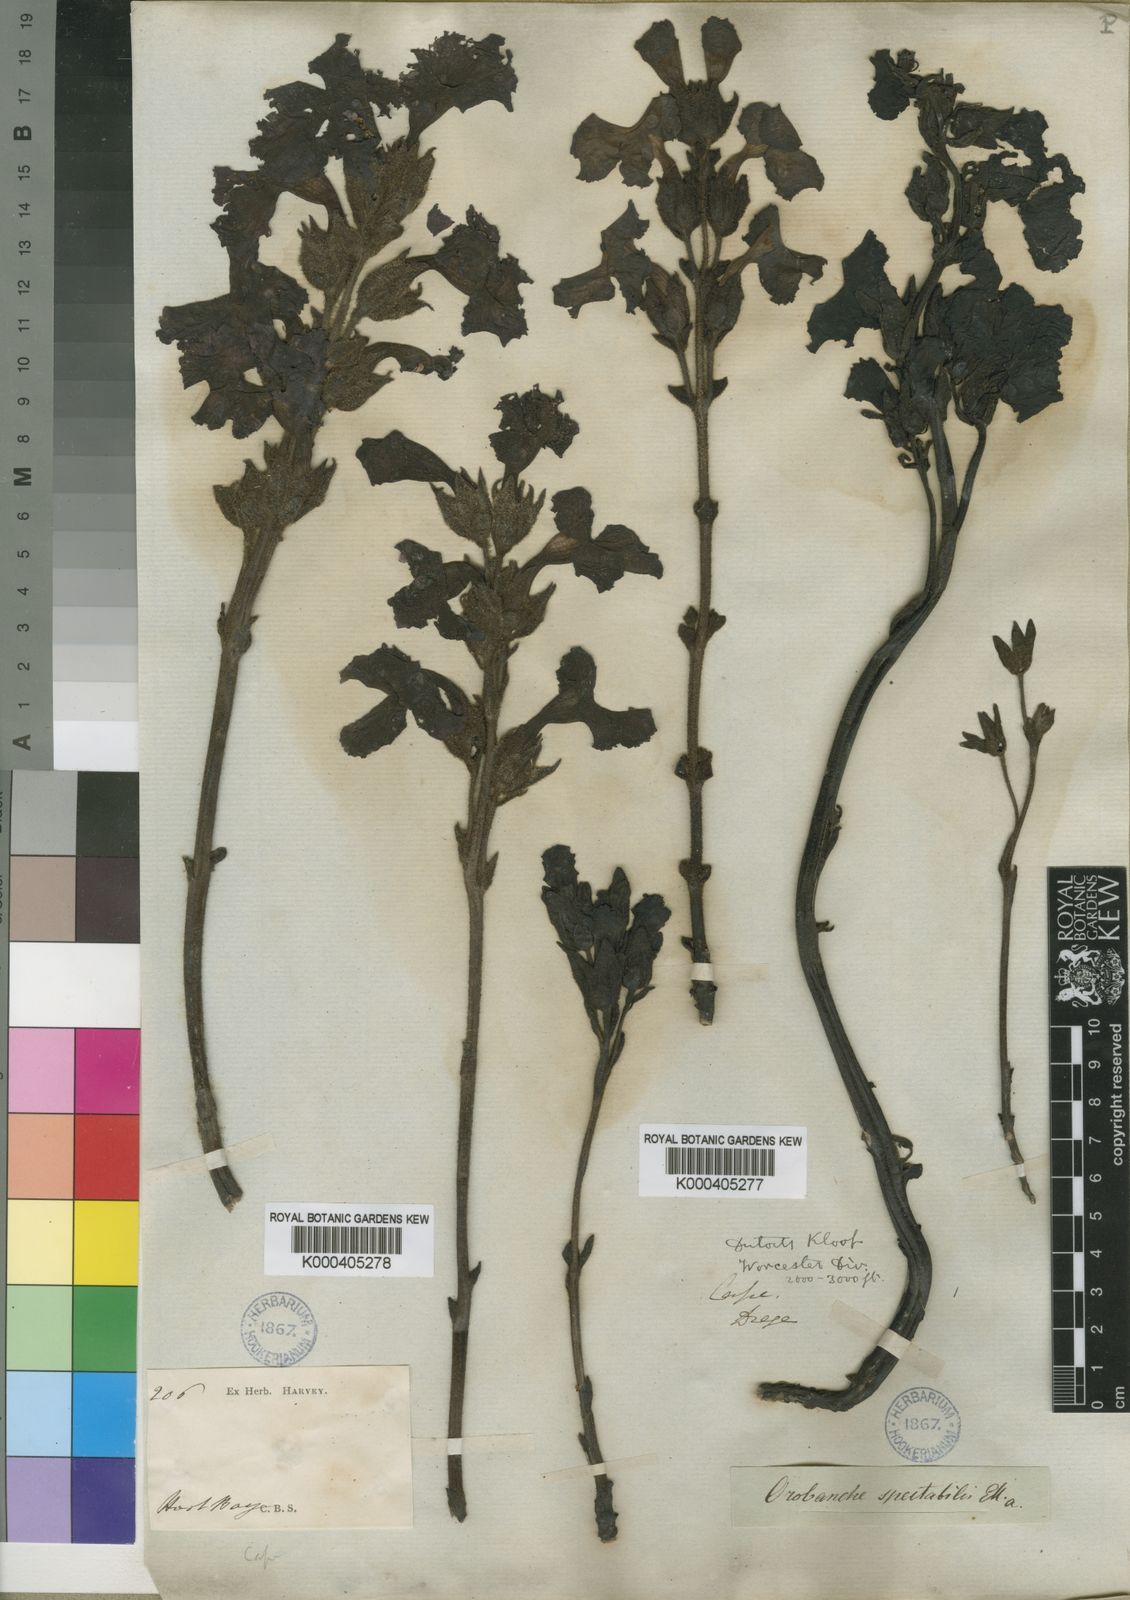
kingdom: Plantae
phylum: Tracheophyta
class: Magnoliopsida
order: Lamiales
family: Orobanchaceae
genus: Harveya
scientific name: Harveya capensis
